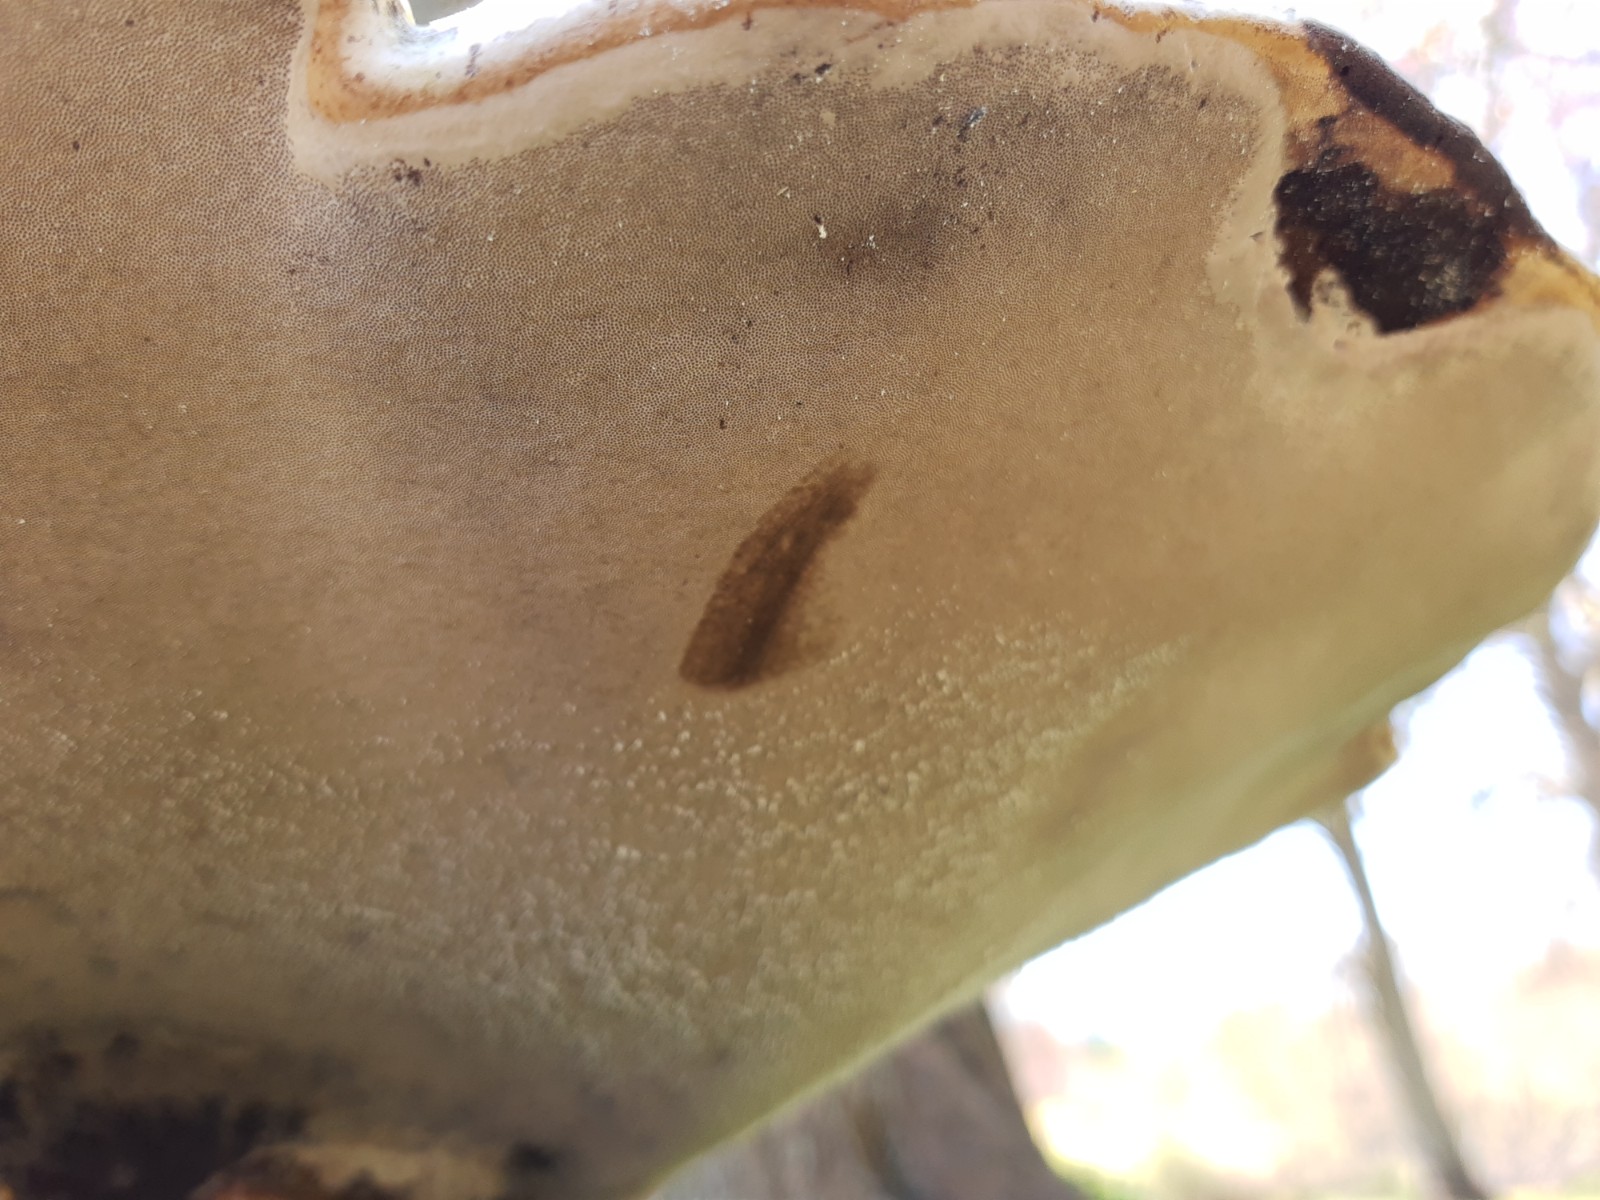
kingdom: Fungi
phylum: Basidiomycota
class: Agaricomycetes
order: Polyporales
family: Polyporaceae
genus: Fomes
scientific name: Fomes fomentarius
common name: tøndersvamp
